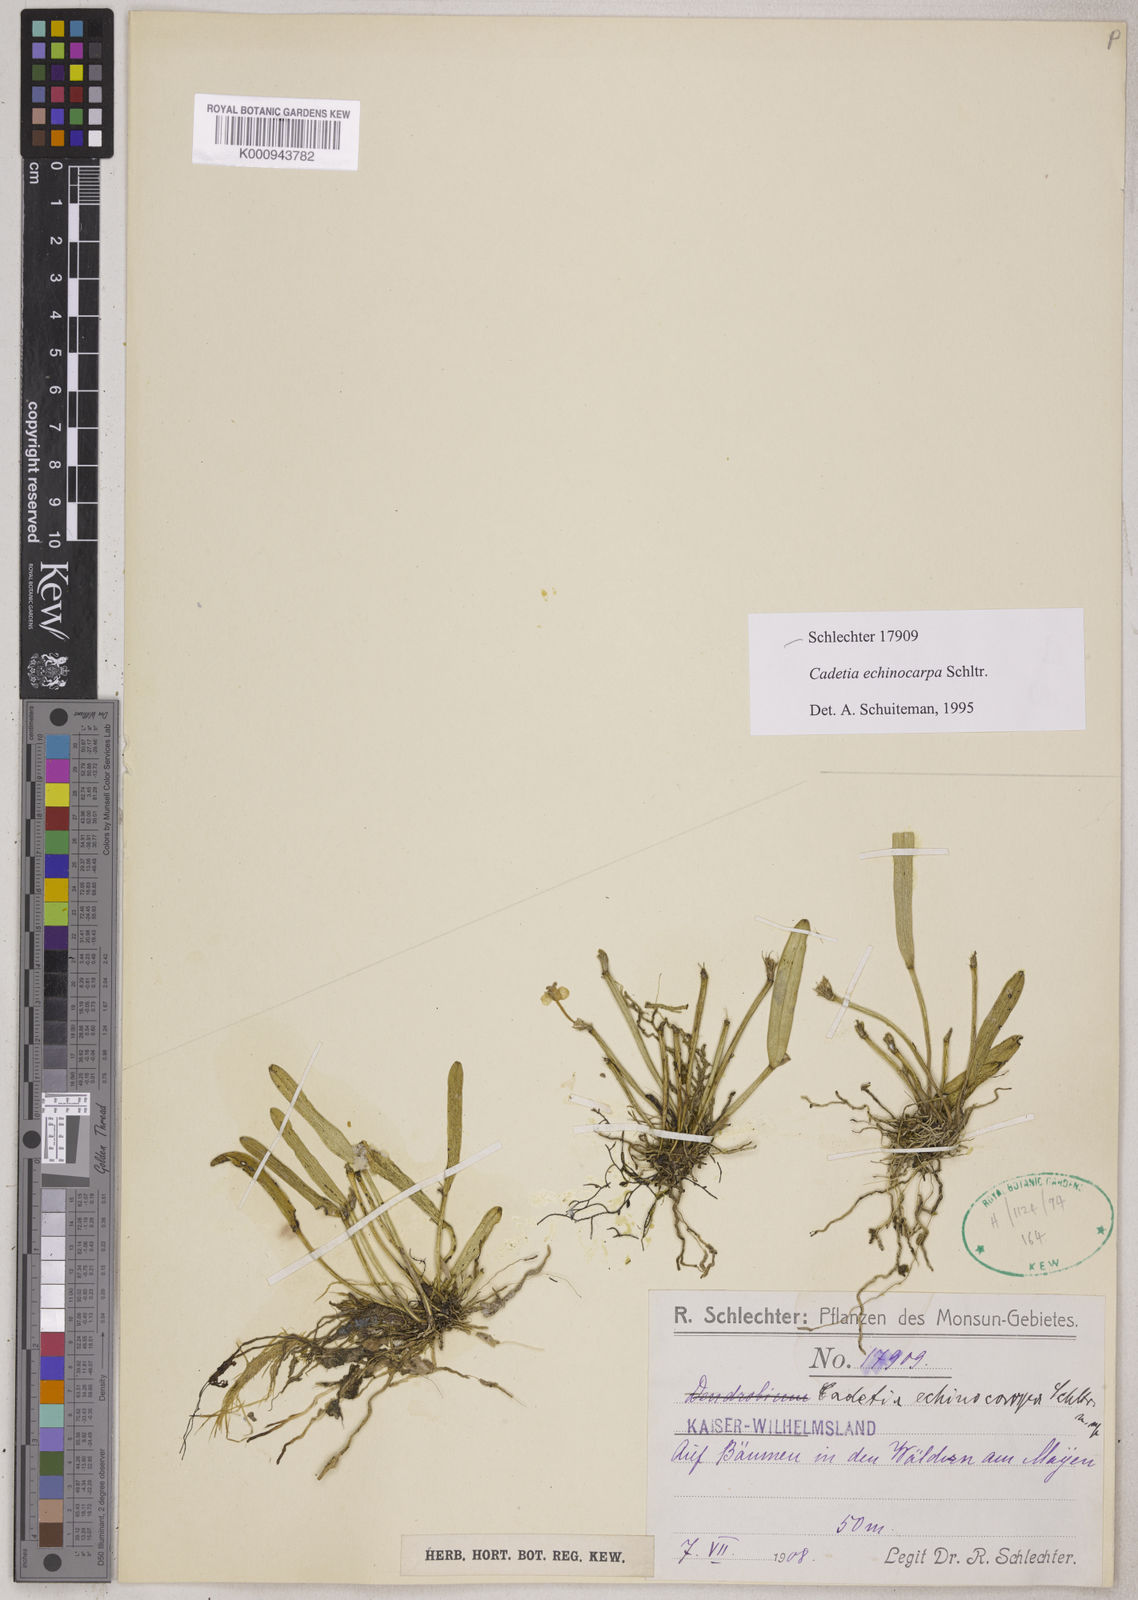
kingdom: Plantae
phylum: Tracheophyta
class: Liliopsida
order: Asparagales
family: Orchidaceae
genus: Dendrobium
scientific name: Dendrobium echinocarpum
